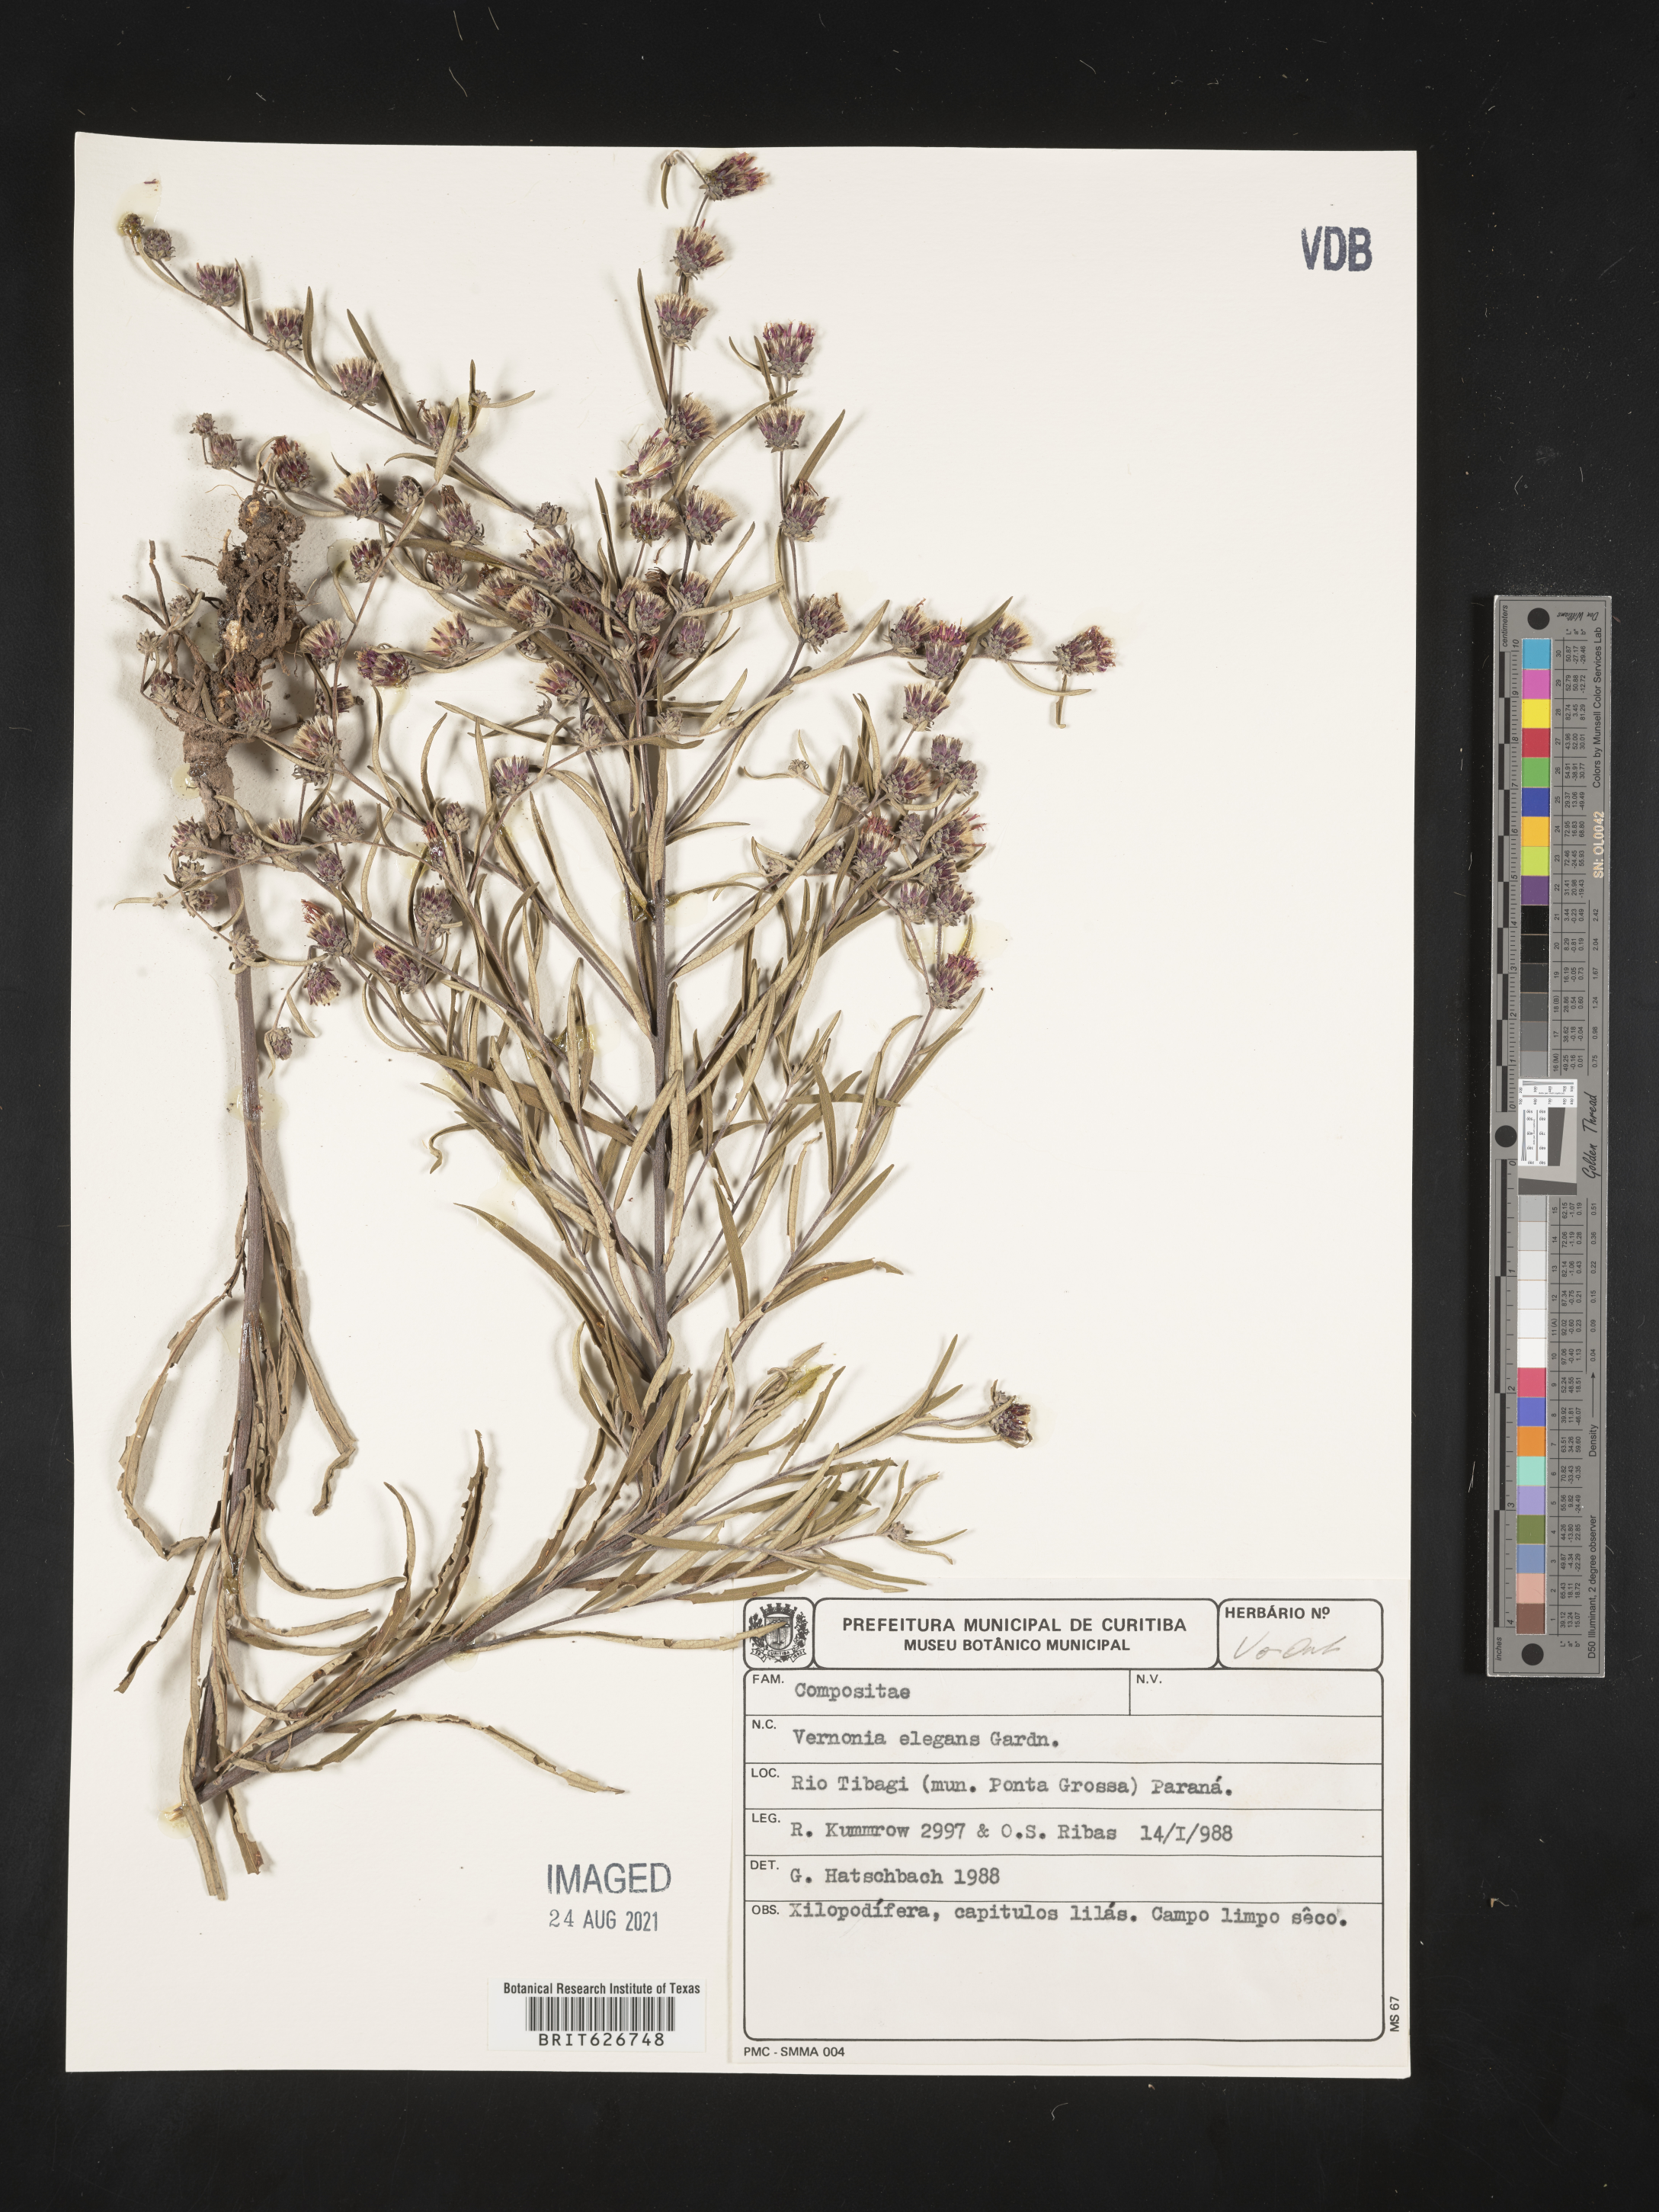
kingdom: Plantae
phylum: Tracheophyta
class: Magnoliopsida
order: Asterales
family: Asteraceae
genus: Lessingianthus
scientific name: Lessingianthus elegans
